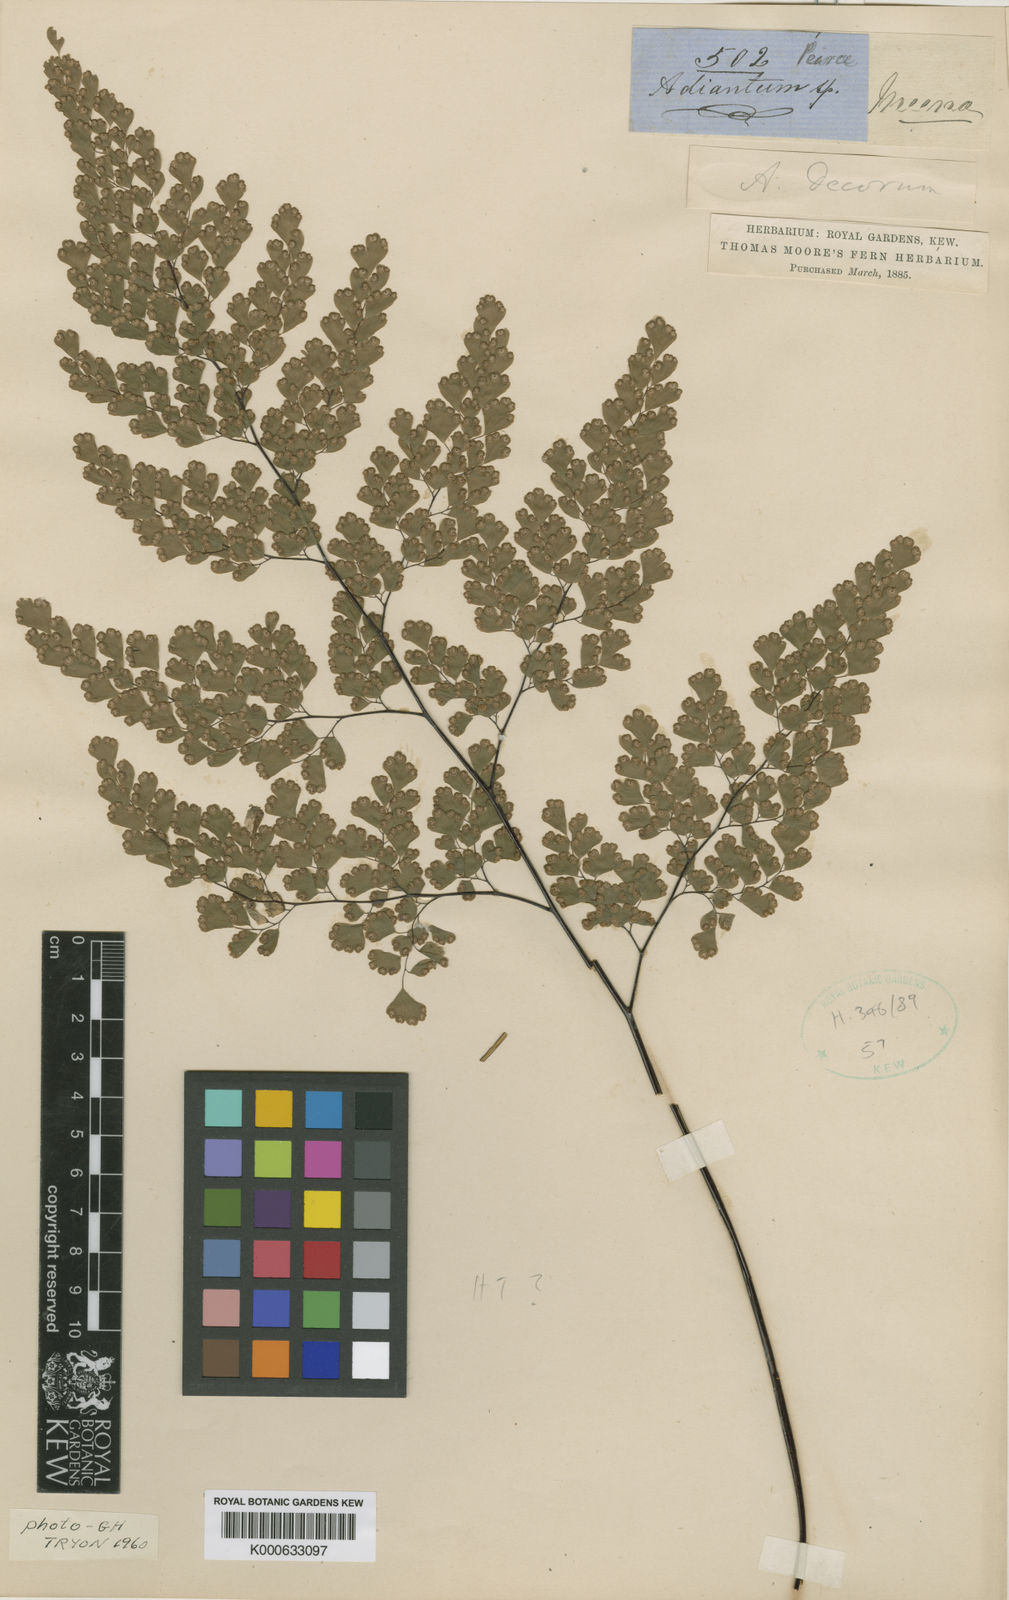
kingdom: Plantae
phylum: Tracheophyta
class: Polypodiopsida
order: Polypodiales
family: Pteridaceae
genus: Adiantum
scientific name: Adiantum raddianum
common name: Delta maidenhair fern
